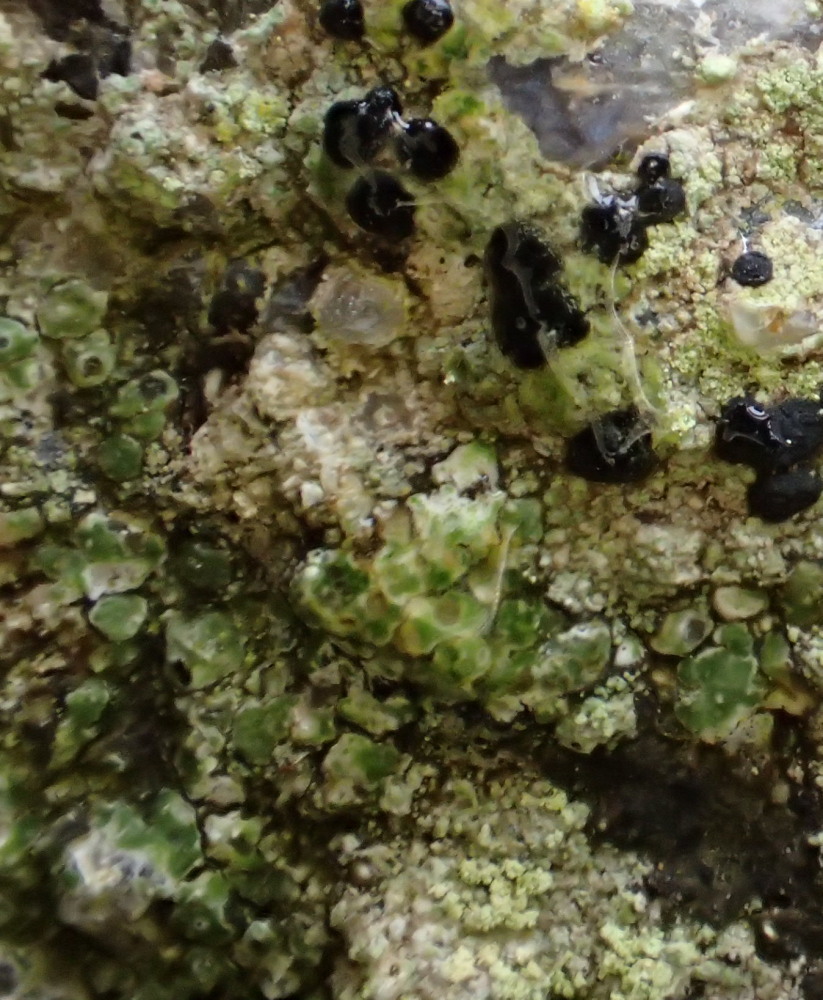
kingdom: Fungi
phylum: Ascomycota
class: Lecanoromycetes
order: Lecanorales
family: Lecanoraceae
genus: Lecanora
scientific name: Lecanora polytropa
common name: bleggrøn kantskivelav
